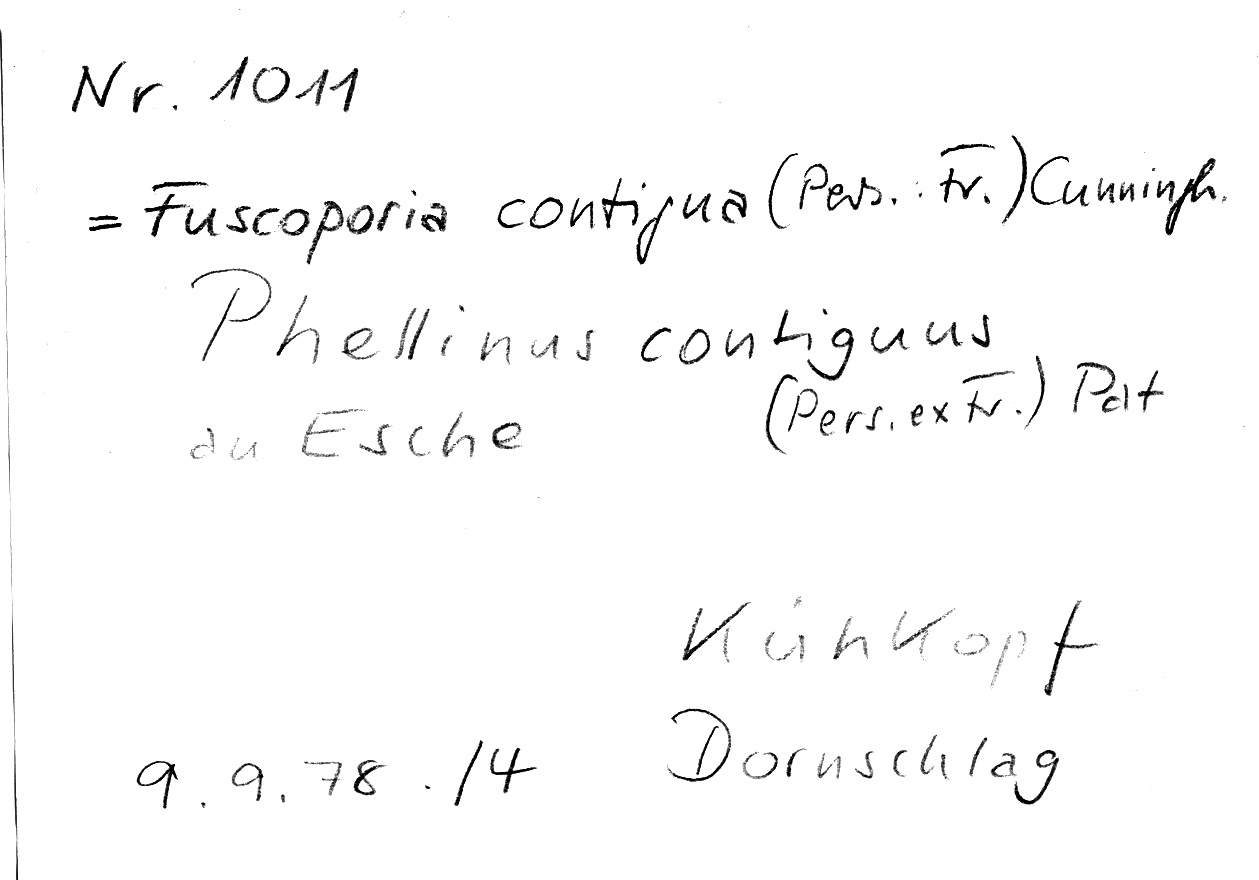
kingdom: Plantae
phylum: Tracheophyta
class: Magnoliopsida
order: Lamiales
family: Oleaceae
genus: Fraxinus
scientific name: Fraxinus
